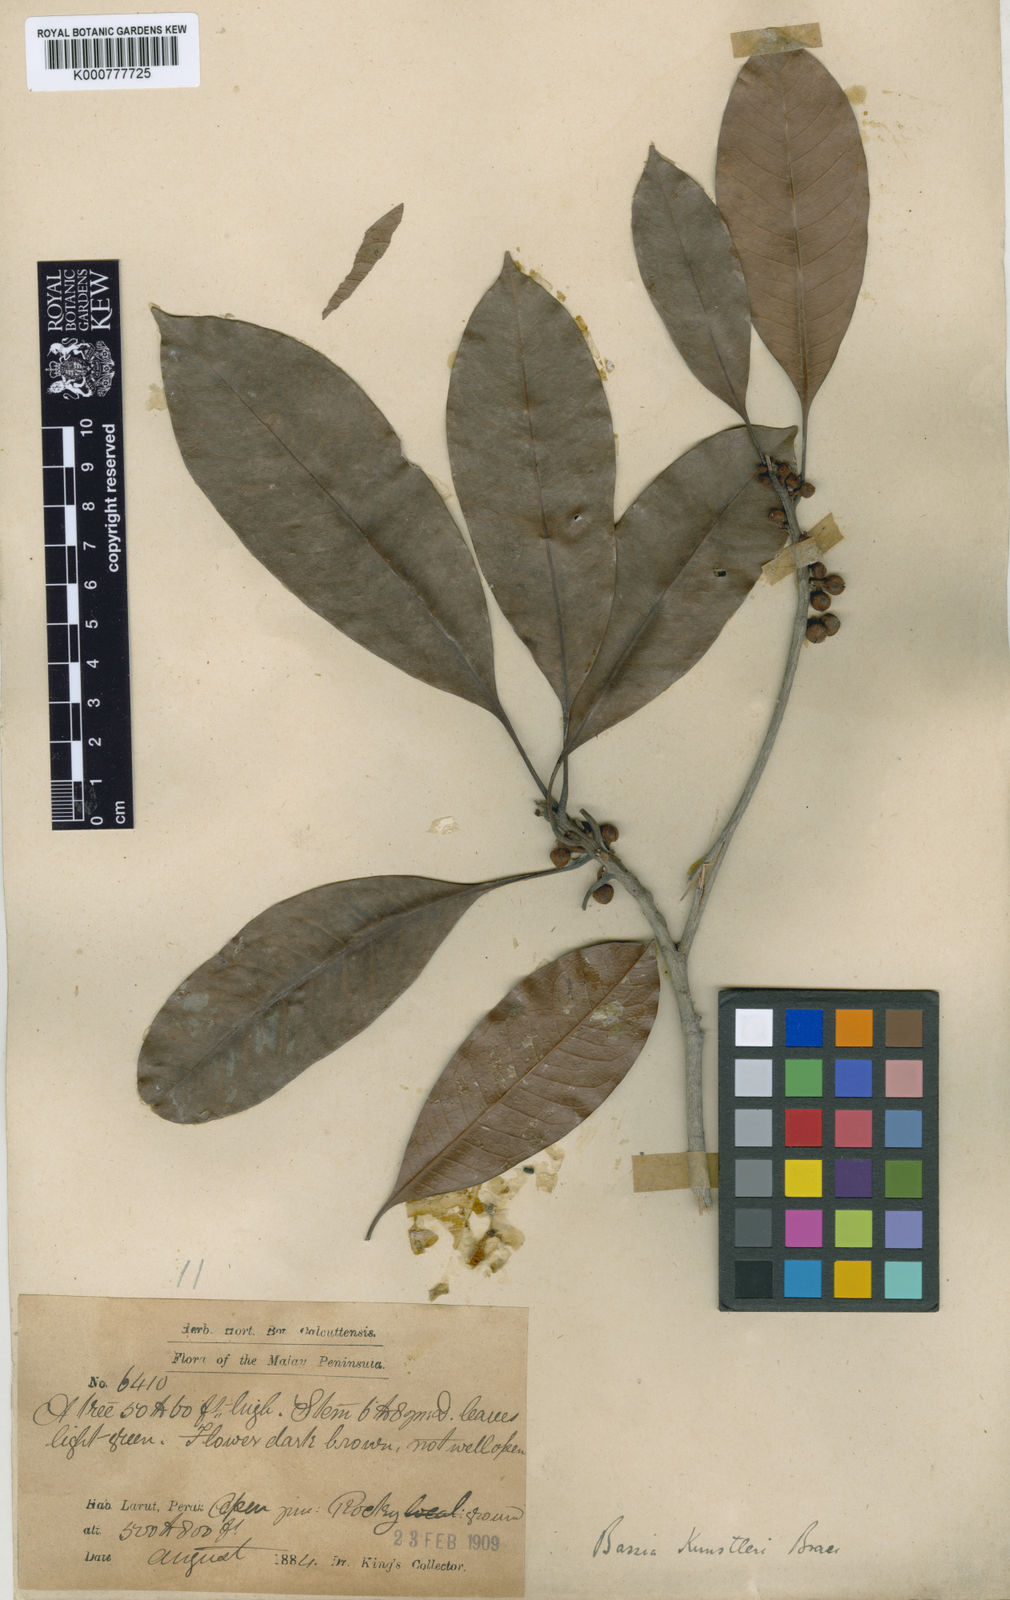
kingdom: Plantae
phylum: Tracheophyta
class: Magnoliopsida
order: Ericales
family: Sapotaceae
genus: Madhuca
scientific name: Madhuca kunstleri
